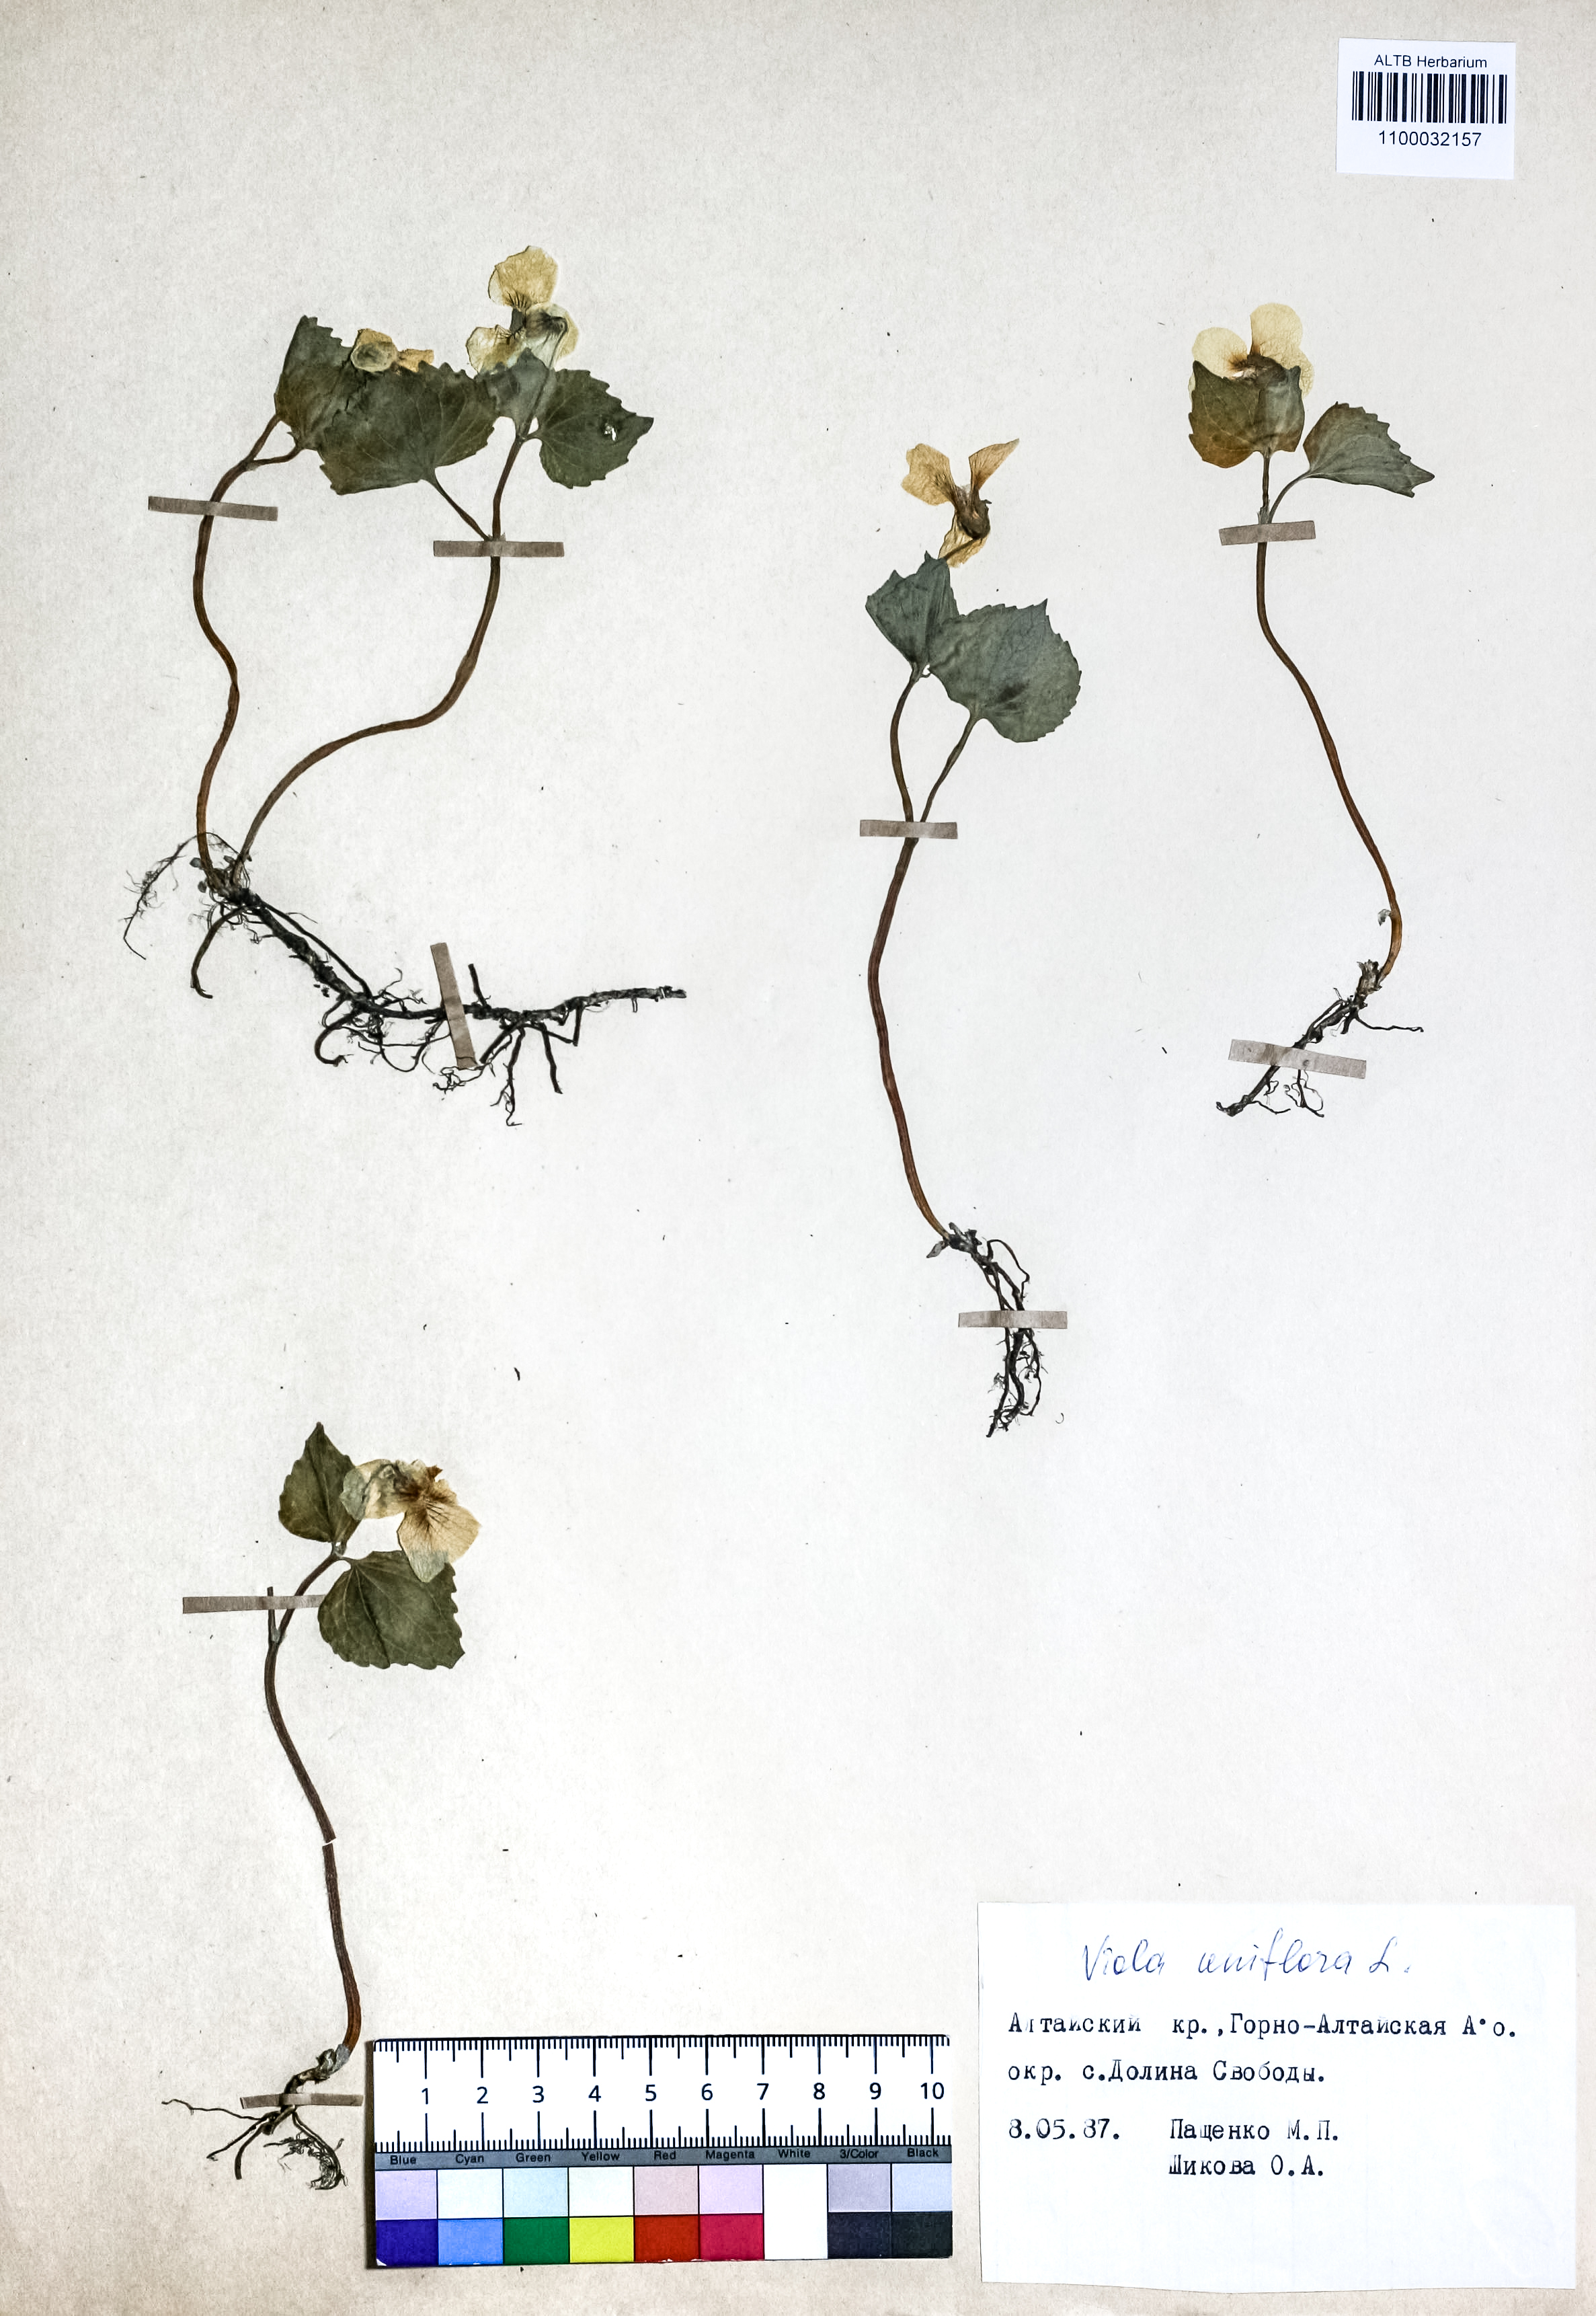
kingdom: Plantae
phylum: Tracheophyta
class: Magnoliopsida
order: Malpighiales
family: Violaceae
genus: Viola
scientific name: Viola uniflora
